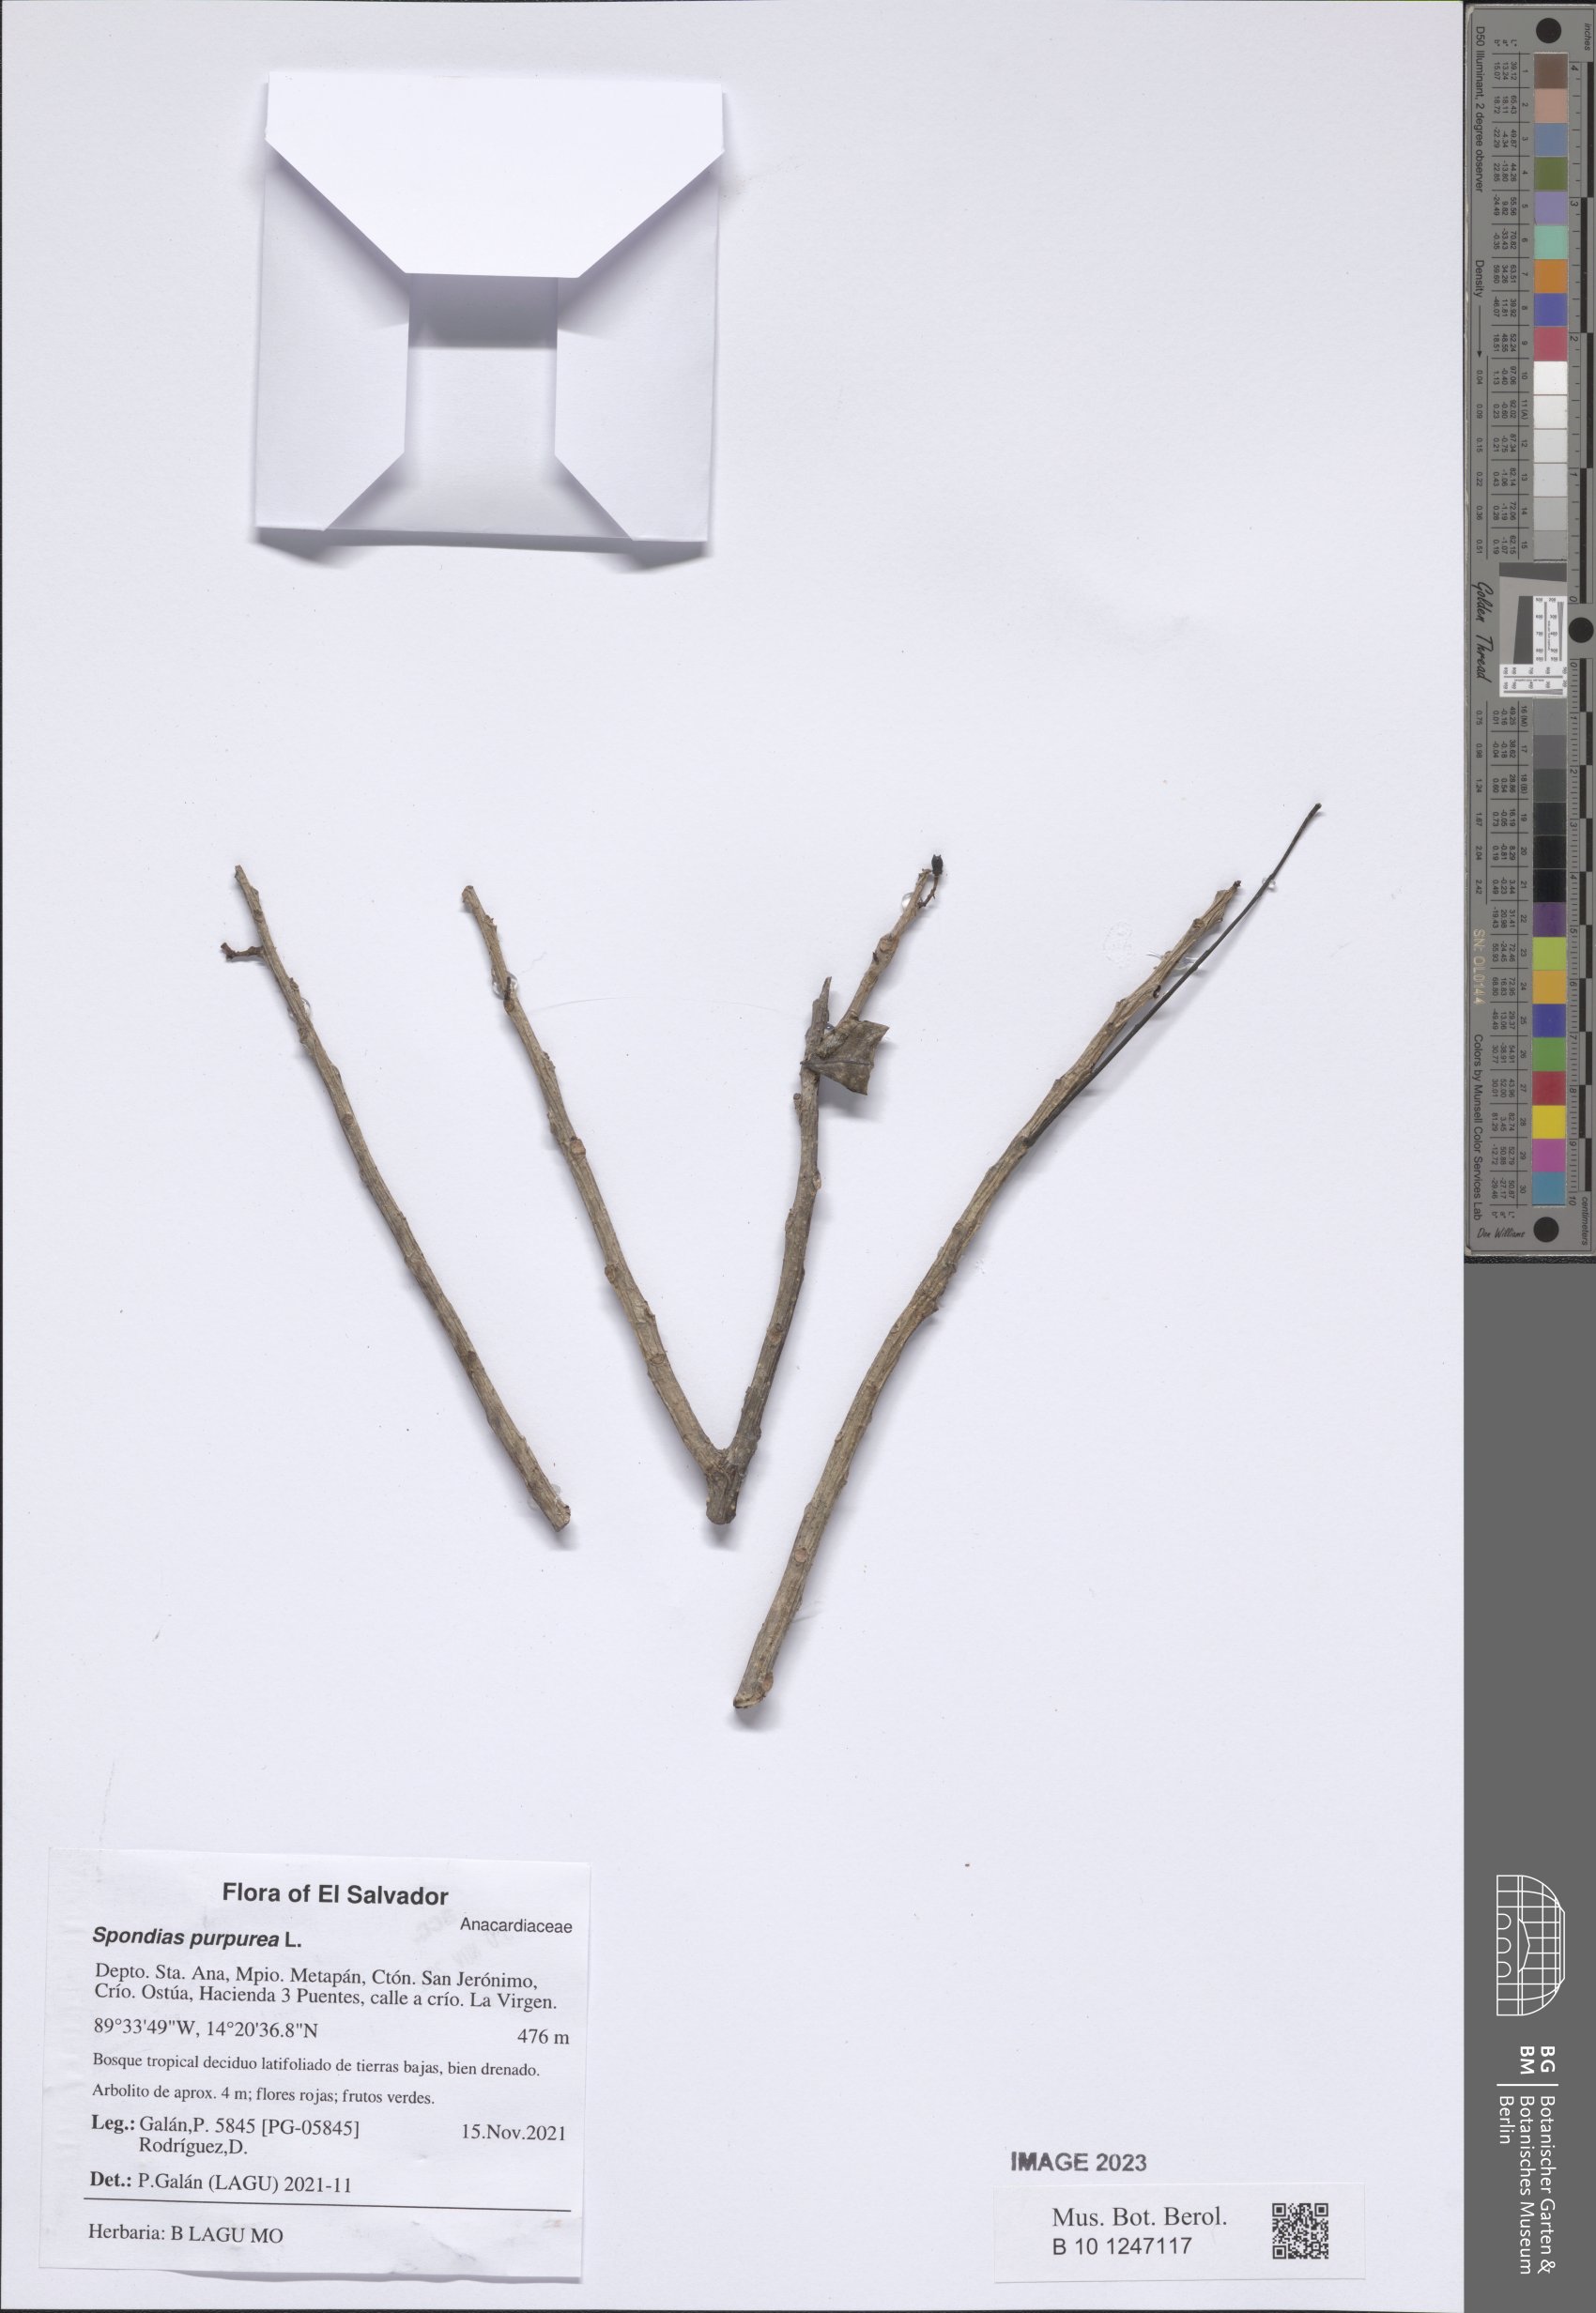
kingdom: Plantae
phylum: Tracheophyta
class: Magnoliopsida
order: Sapindales
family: Anacardiaceae
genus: Spondias
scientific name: Spondias purpurea
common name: Purple mombin
